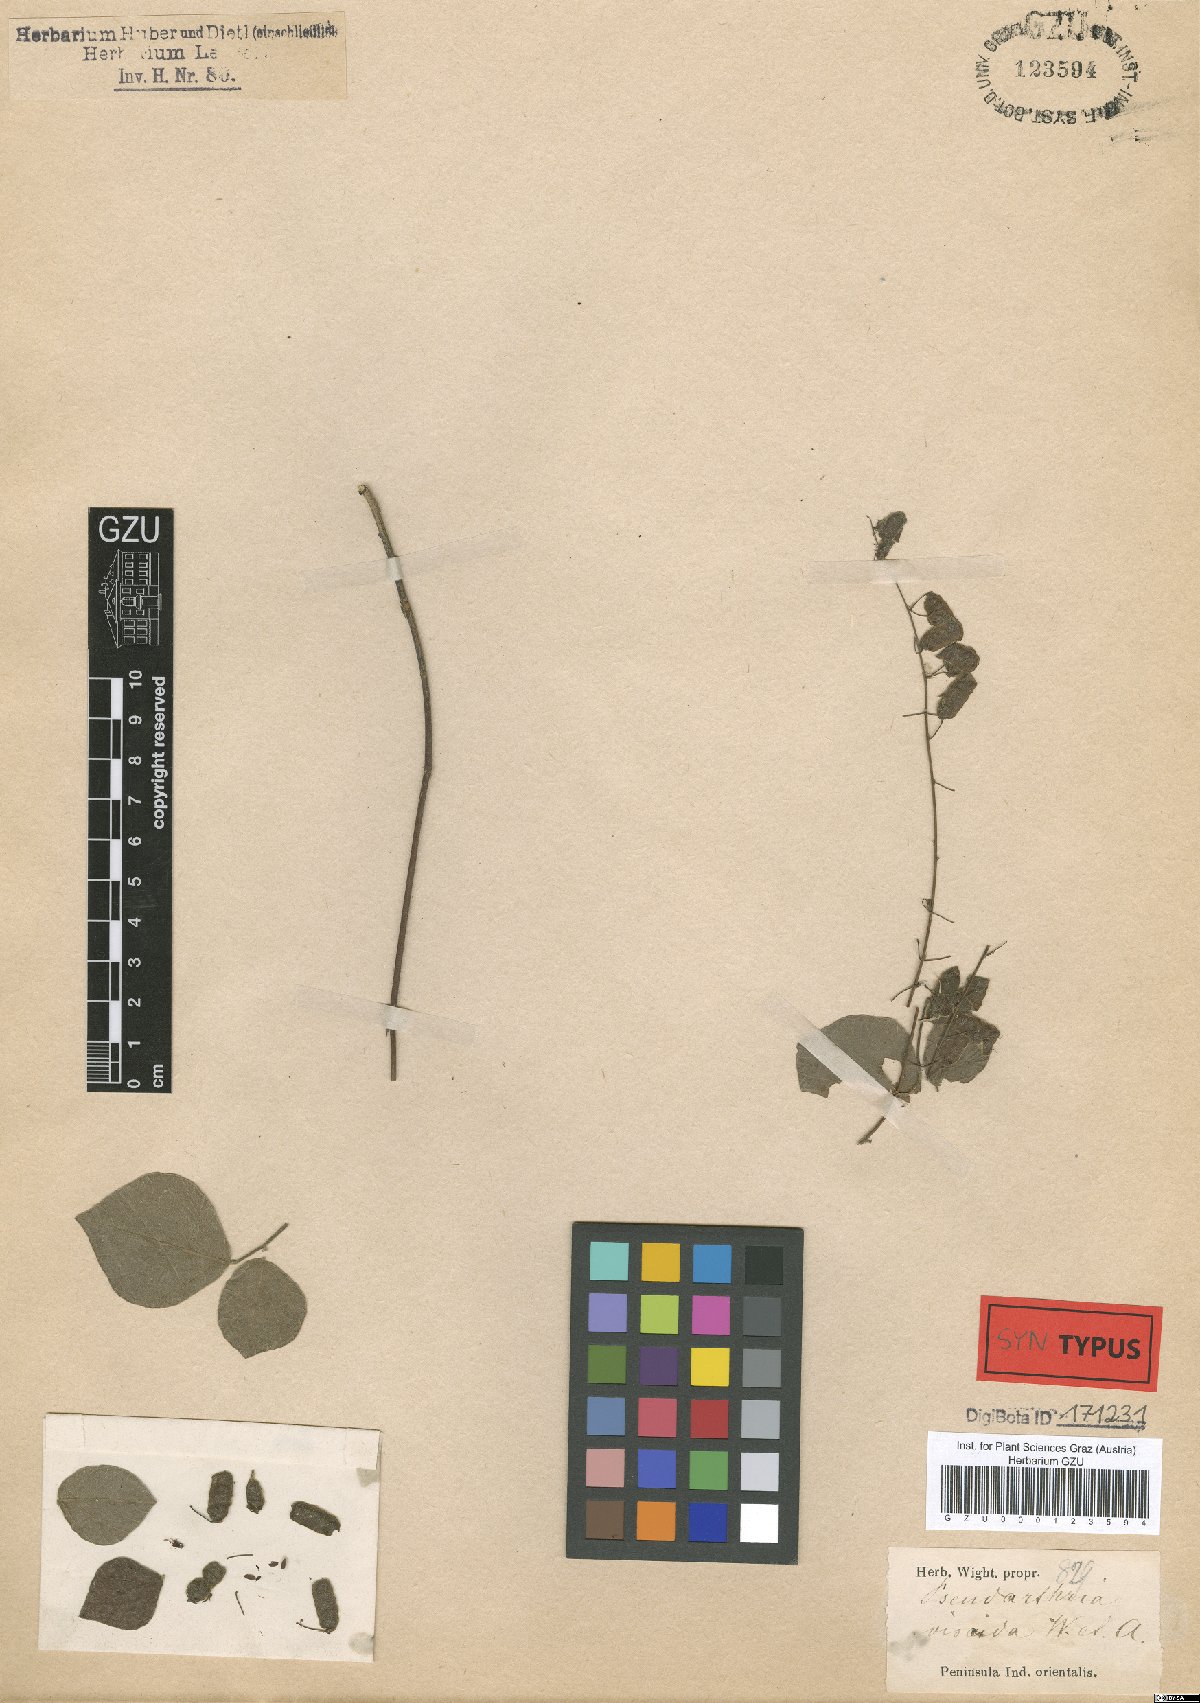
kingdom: Plantae
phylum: Tracheophyta
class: Magnoliopsida
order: Fabales
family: Fabaceae
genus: Pseudarthria
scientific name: Pseudarthria viscida
